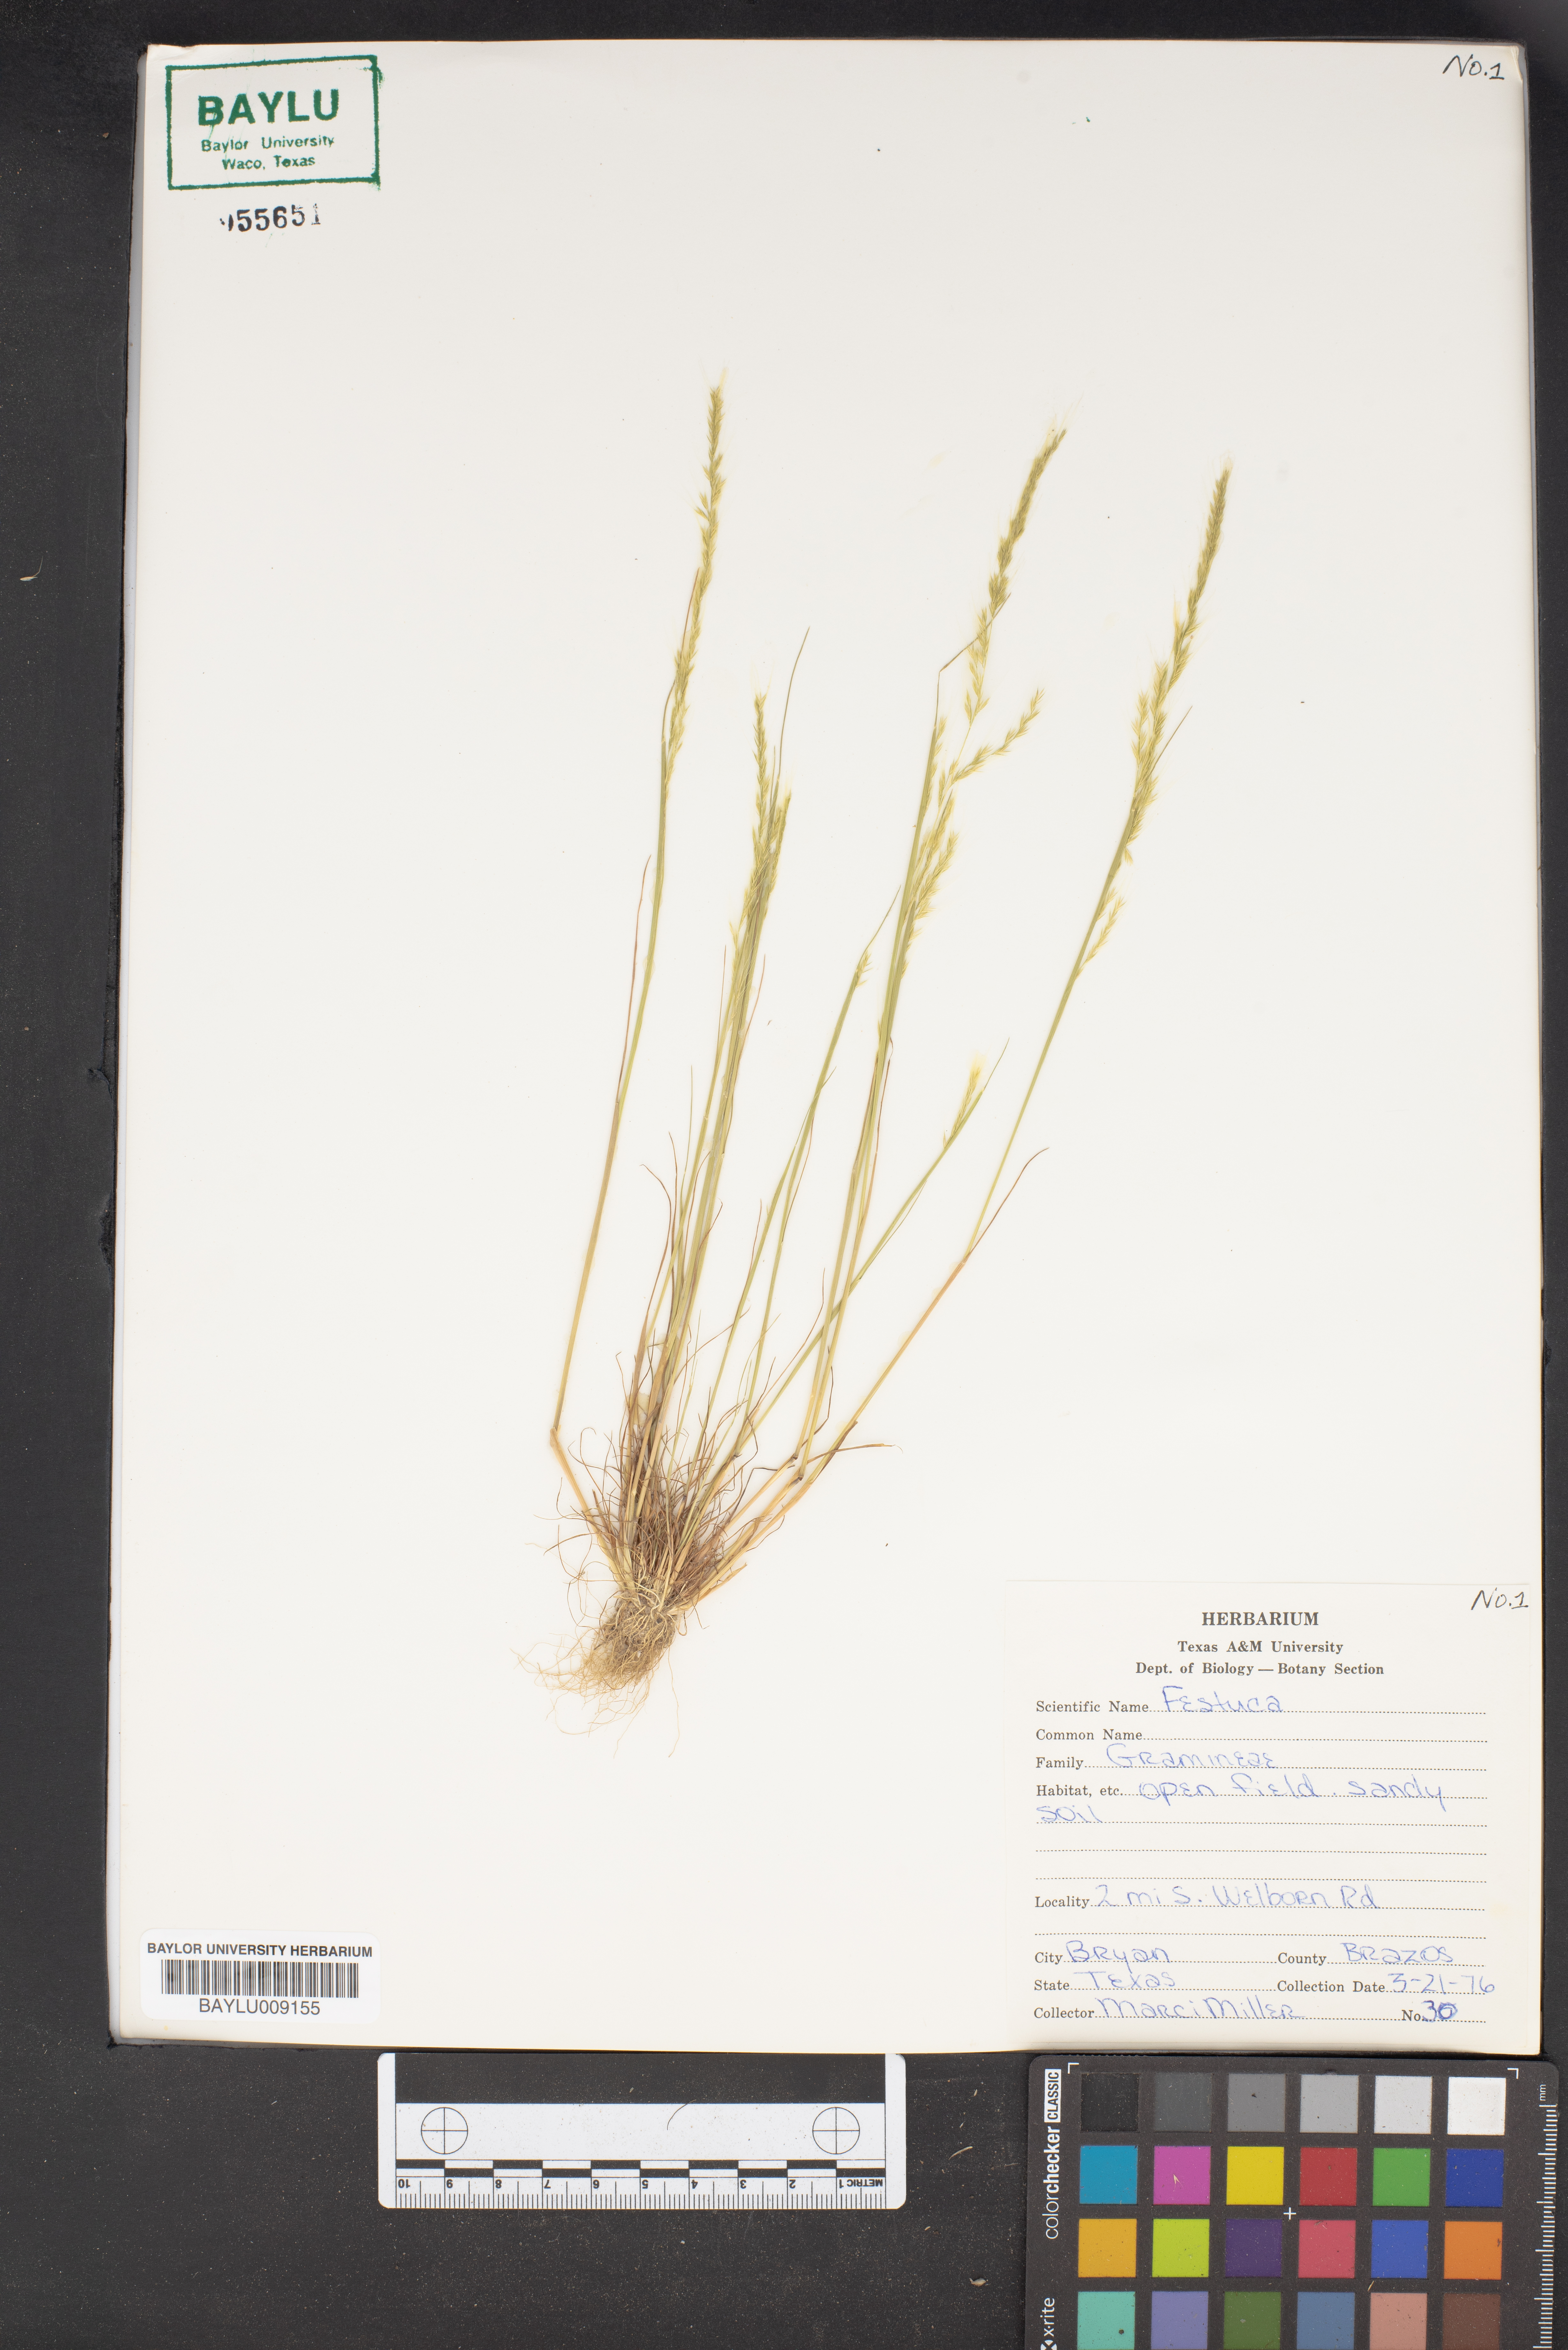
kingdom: Plantae
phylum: Tracheophyta
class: Liliopsida
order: Poales
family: Poaceae
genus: Festuca
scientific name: Festuca
